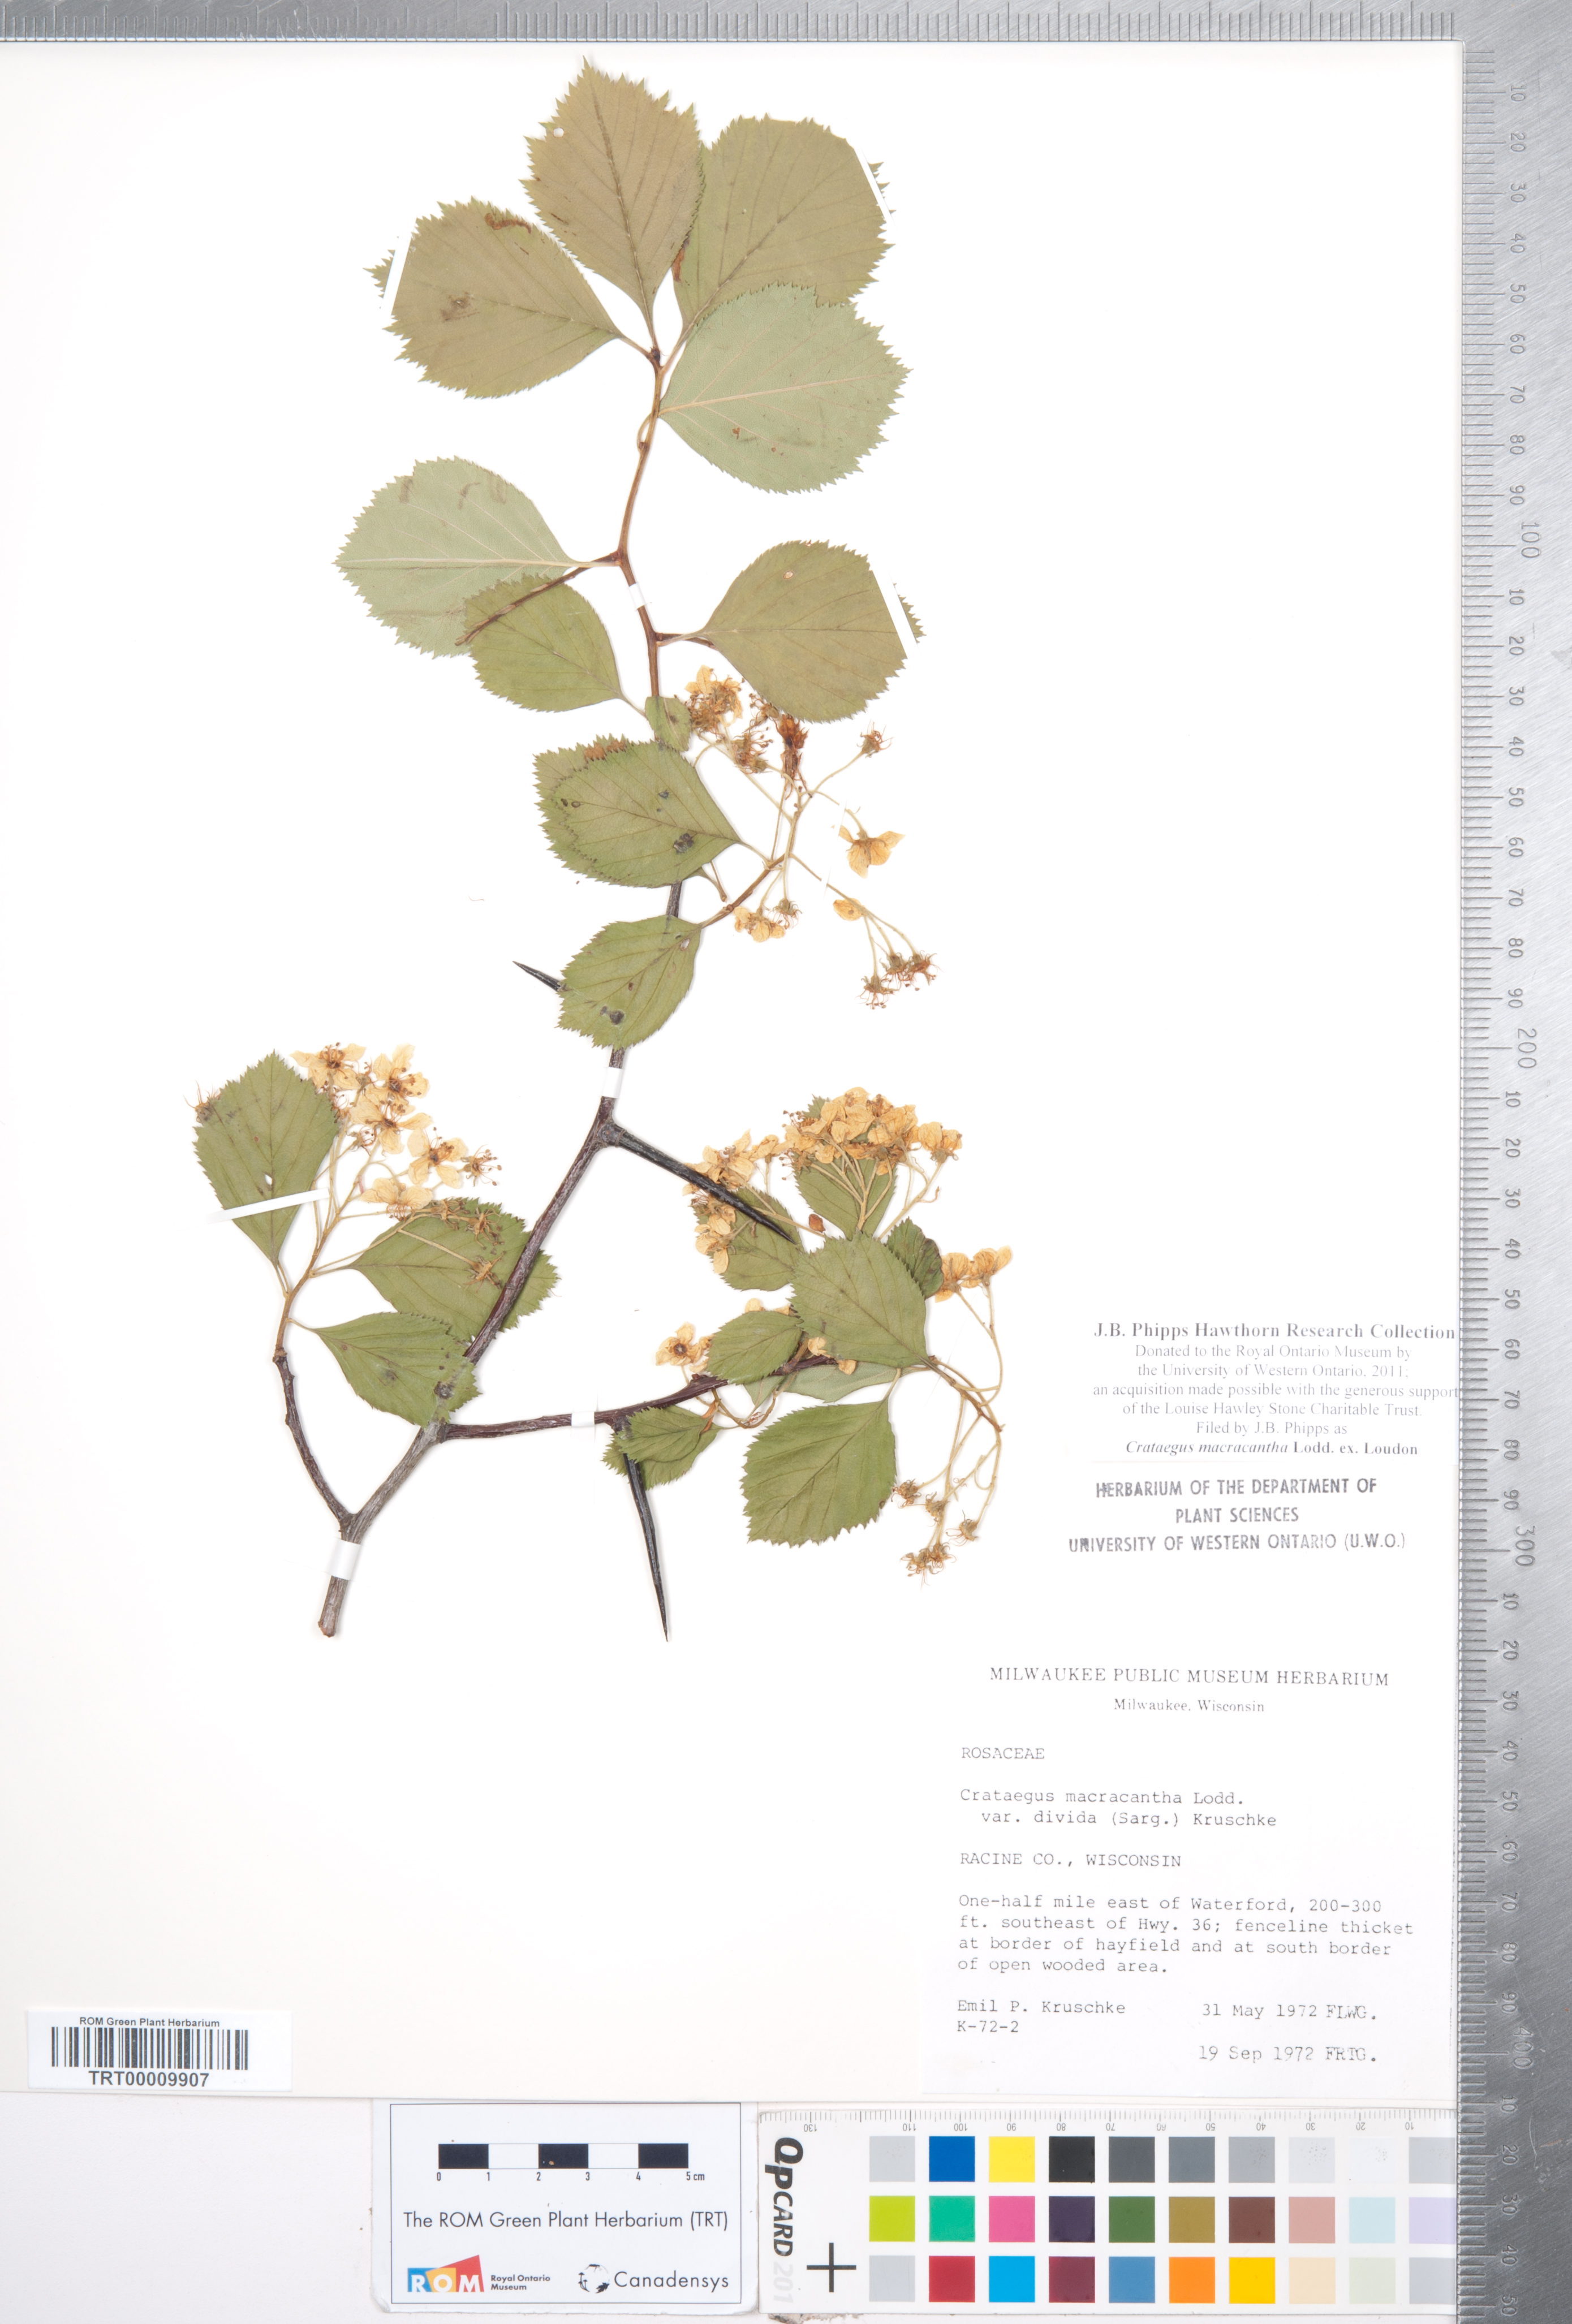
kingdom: Plantae
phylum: Tracheophyta
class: Magnoliopsida
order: Rosales
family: Rosaceae
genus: Crataegus
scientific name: Crataegus macracantha
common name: Large-thorn hawthorn
